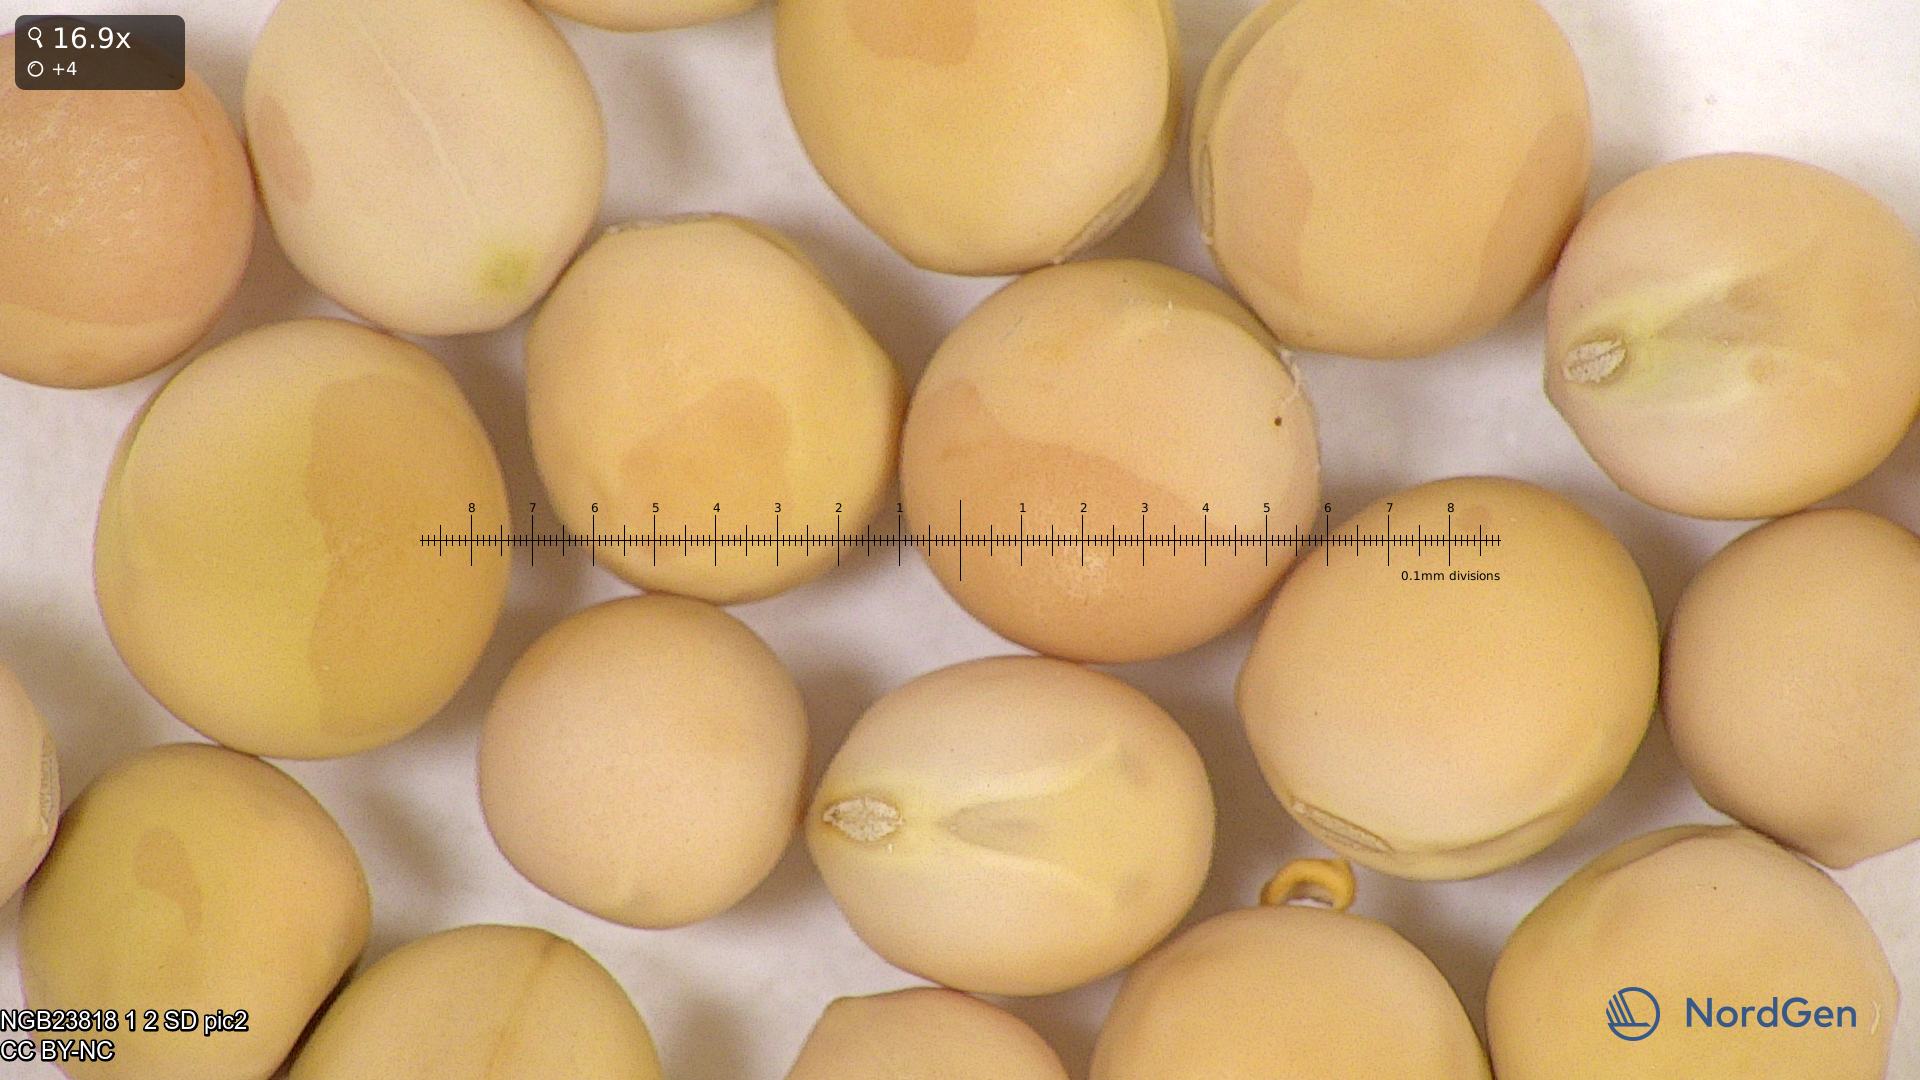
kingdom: Plantae
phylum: Tracheophyta
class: Magnoliopsida
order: Fabales
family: Fabaceae
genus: Lathyrus
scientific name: Lathyrus oleraceus
